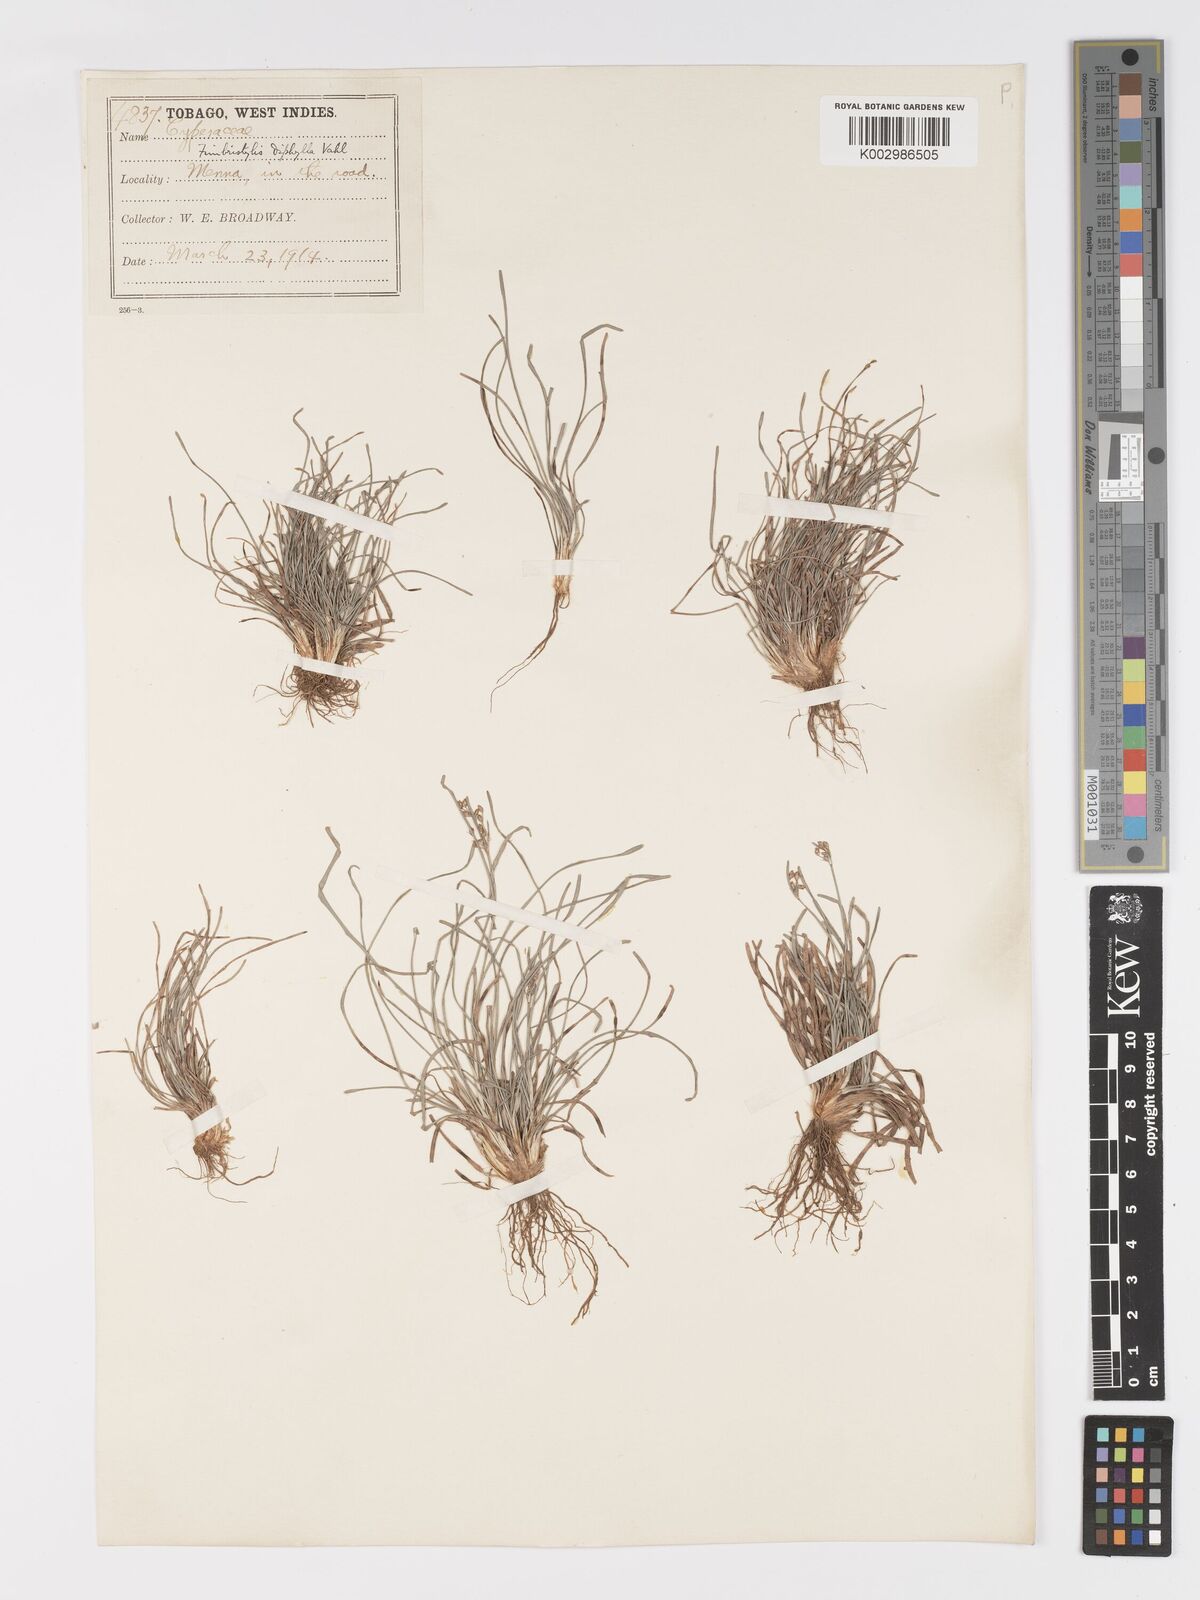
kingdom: Plantae
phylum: Tracheophyta
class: Liliopsida
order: Poales
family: Cyperaceae
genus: Fimbristylis
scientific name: Fimbristylis dichotoma
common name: Forked fimbry
